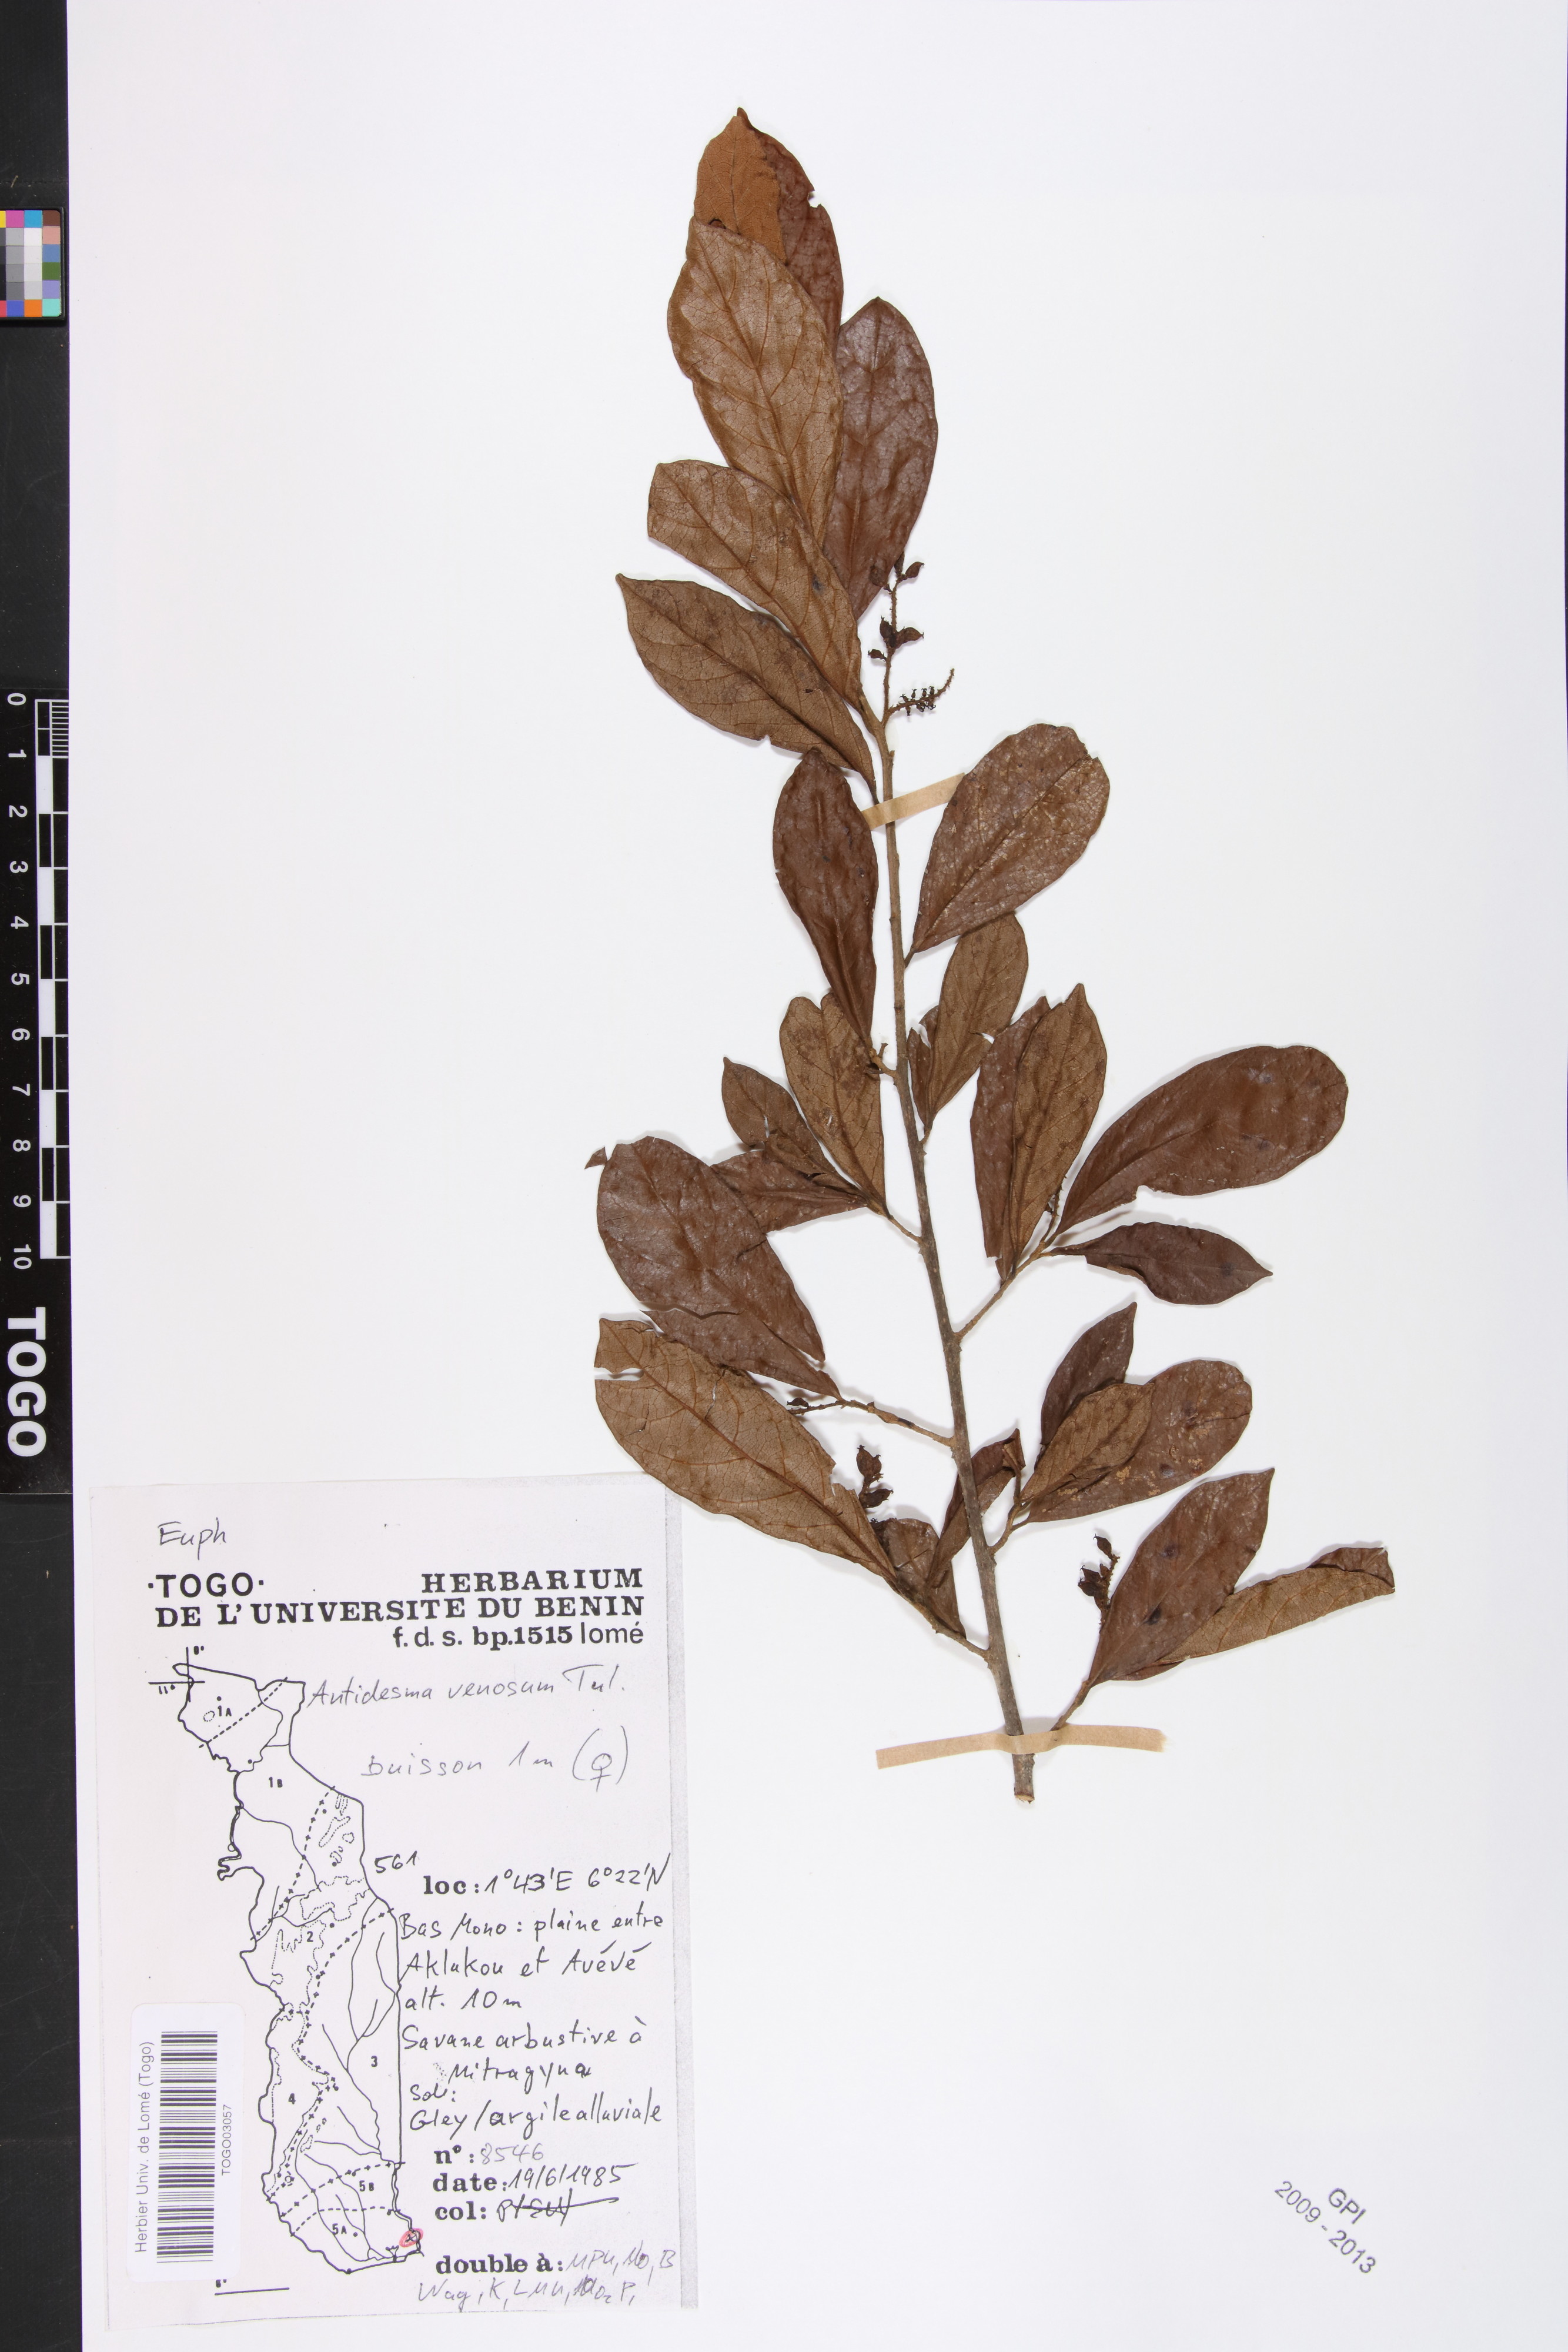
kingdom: Plantae
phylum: Tracheophyta
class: Magnoliopsida
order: Malpighiales
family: Phyllanthaceae
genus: Antidesma
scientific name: Antidesma venosum
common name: Tassel-berry
